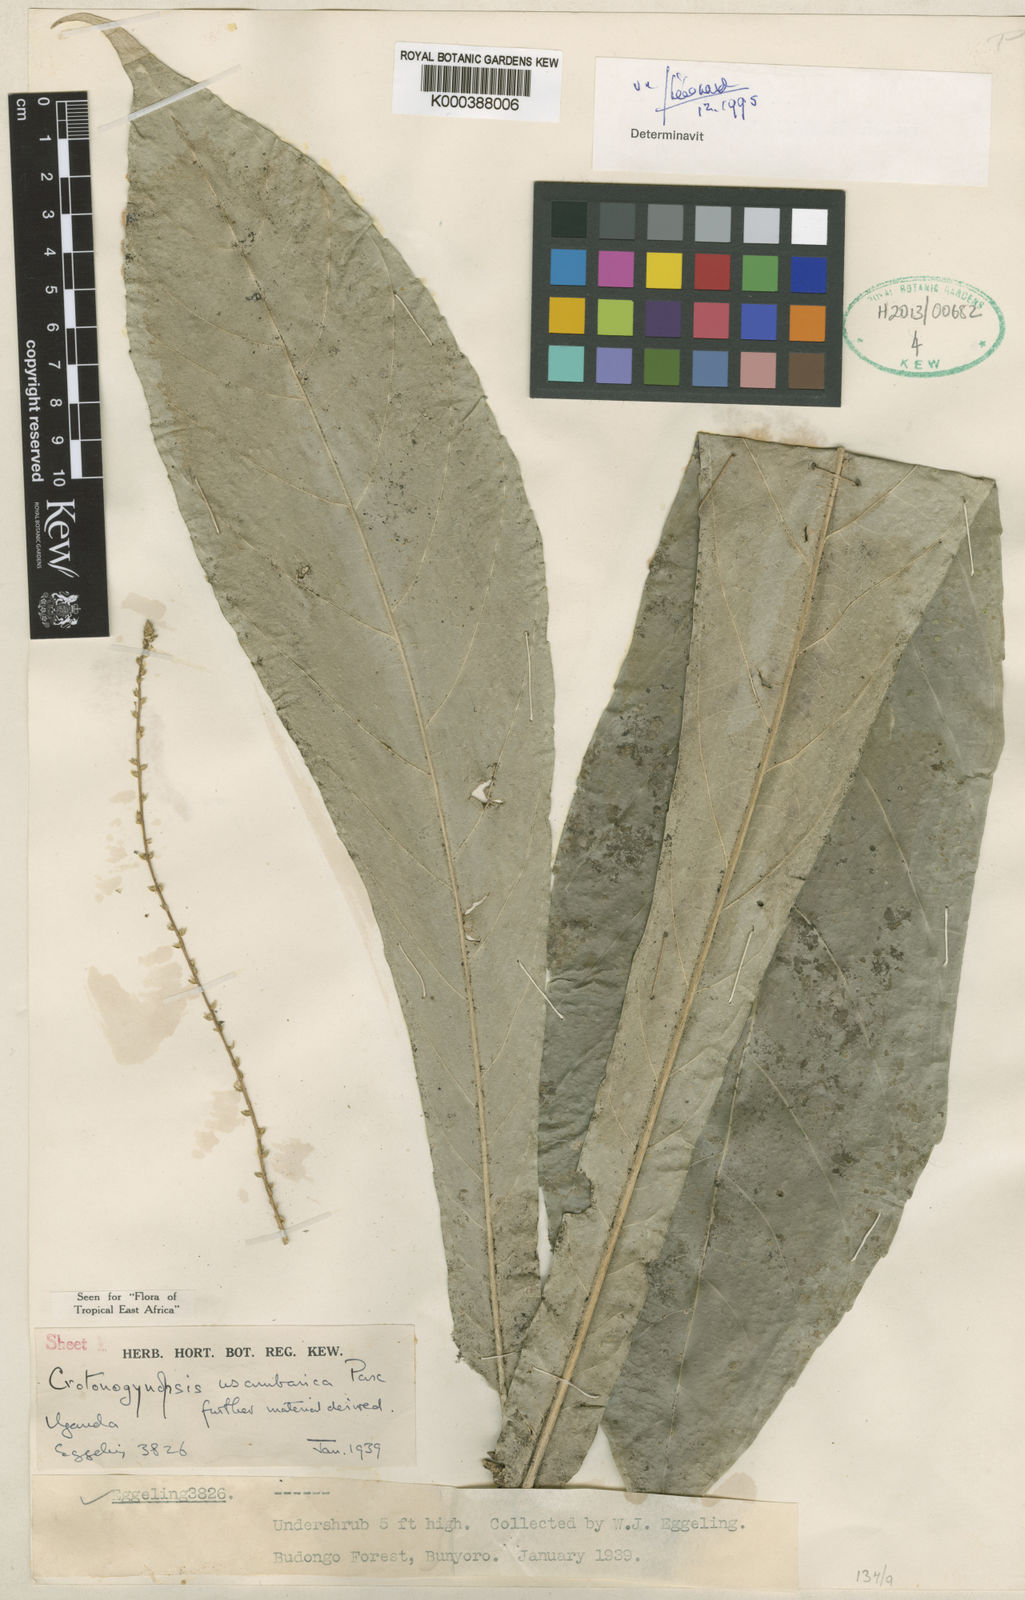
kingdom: Plantae
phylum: Tracheophyta
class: Magnoliopsida
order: Malpighiales
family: Euphorbiaceae
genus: Crotonogynopsis
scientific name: Crotonogynopsis usambarica
